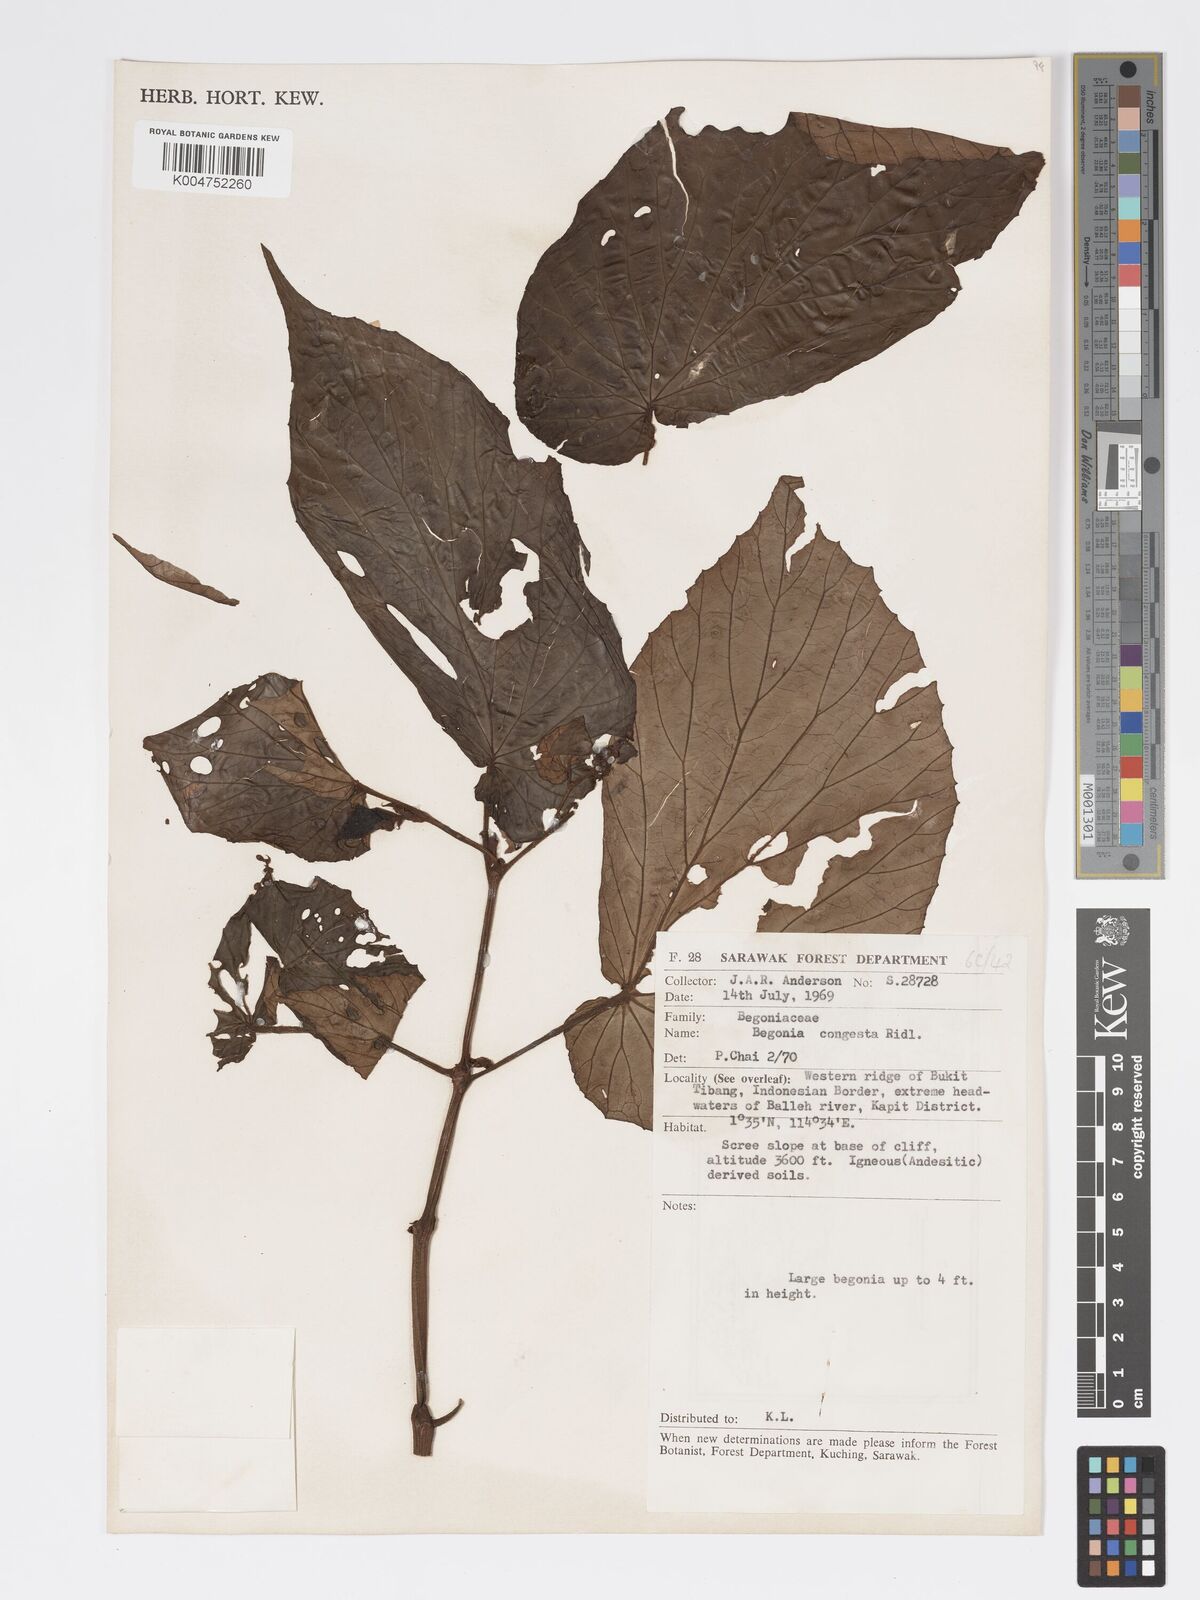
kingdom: Plantae
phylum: Tracheophyta
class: Magnoliopsida
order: Cucurbitales
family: Begoniaceae
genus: Begonia
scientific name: Begonia congesta
